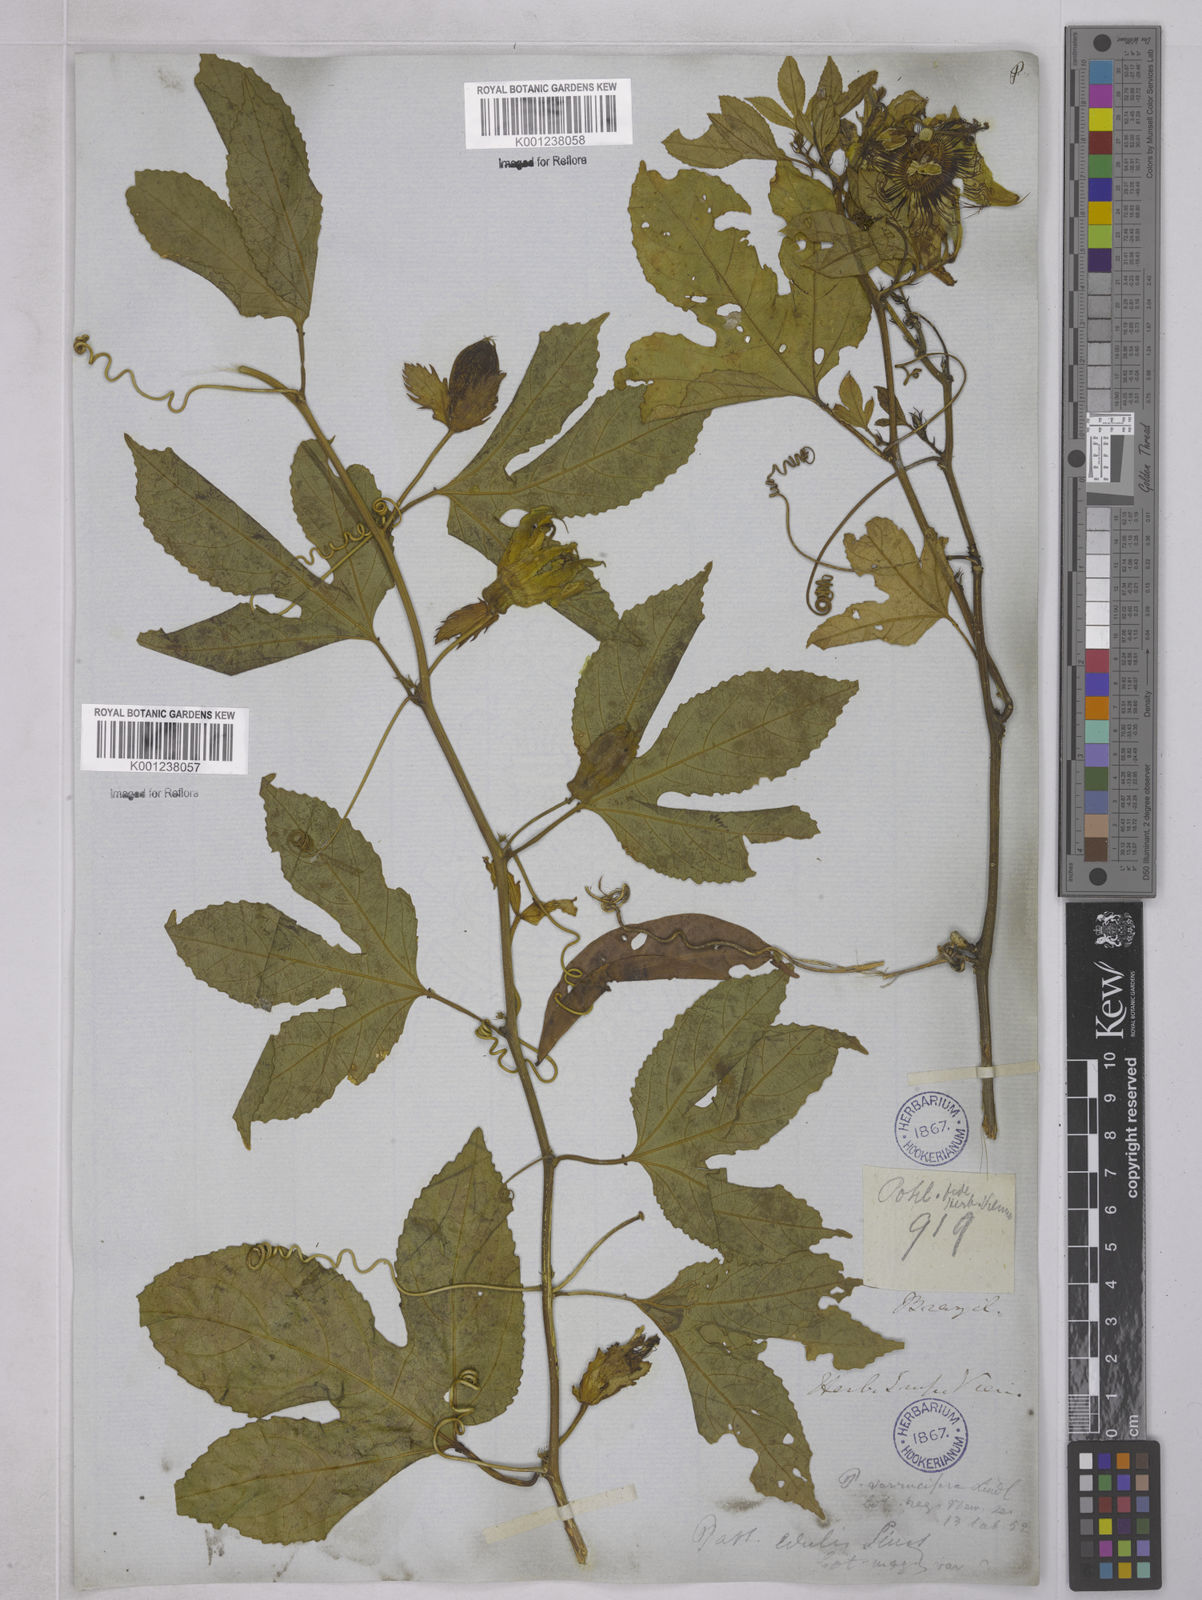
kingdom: Plantae
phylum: Tracheophyta
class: Magnoliopsida
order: Malpighiales
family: Passifloraceae
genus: Passiflora
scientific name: Passiflora edulis
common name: Purple granadilla
